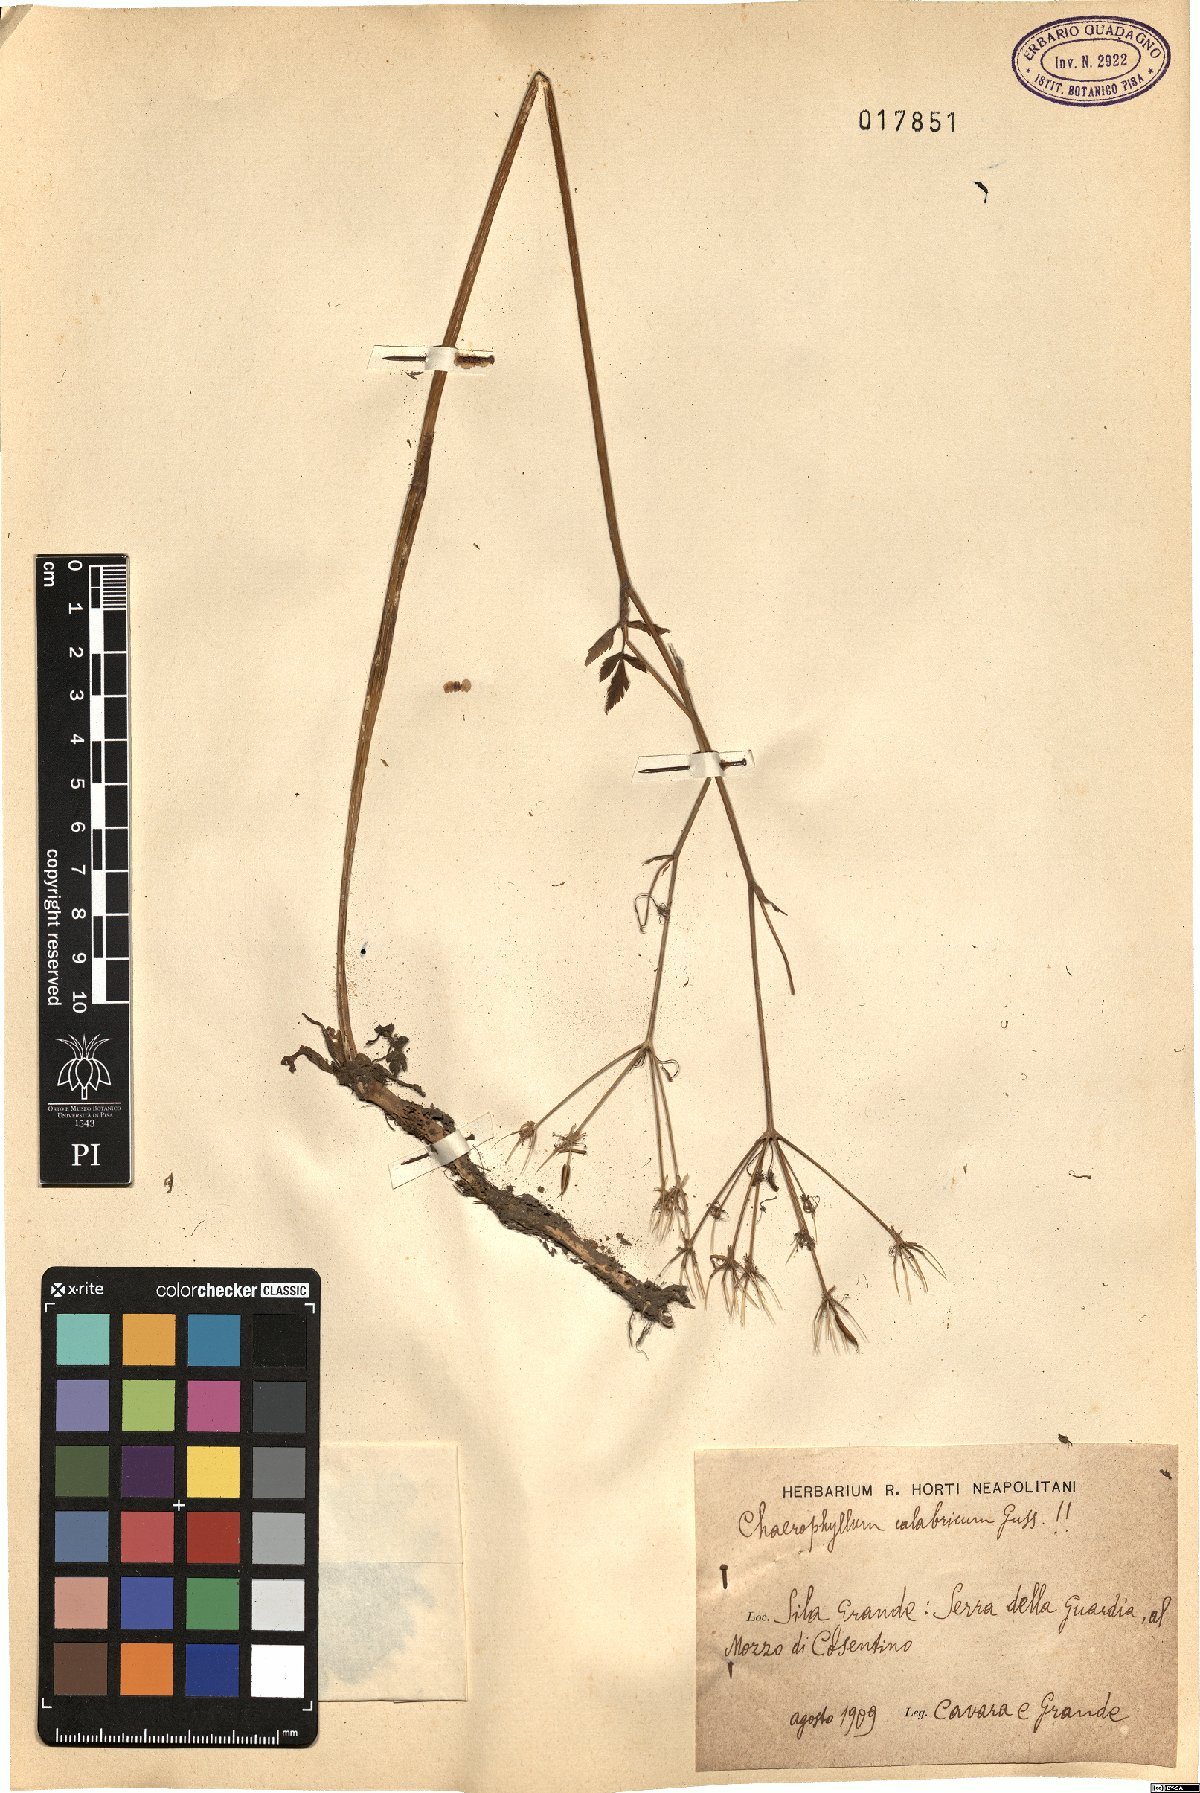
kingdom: Plantae
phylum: Tracheophyta
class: Magnoliopsida
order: Apiales
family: Apiaceae
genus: Chaerophyllum
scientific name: Chaerophyllum hirsutum
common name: Hairy chervil
